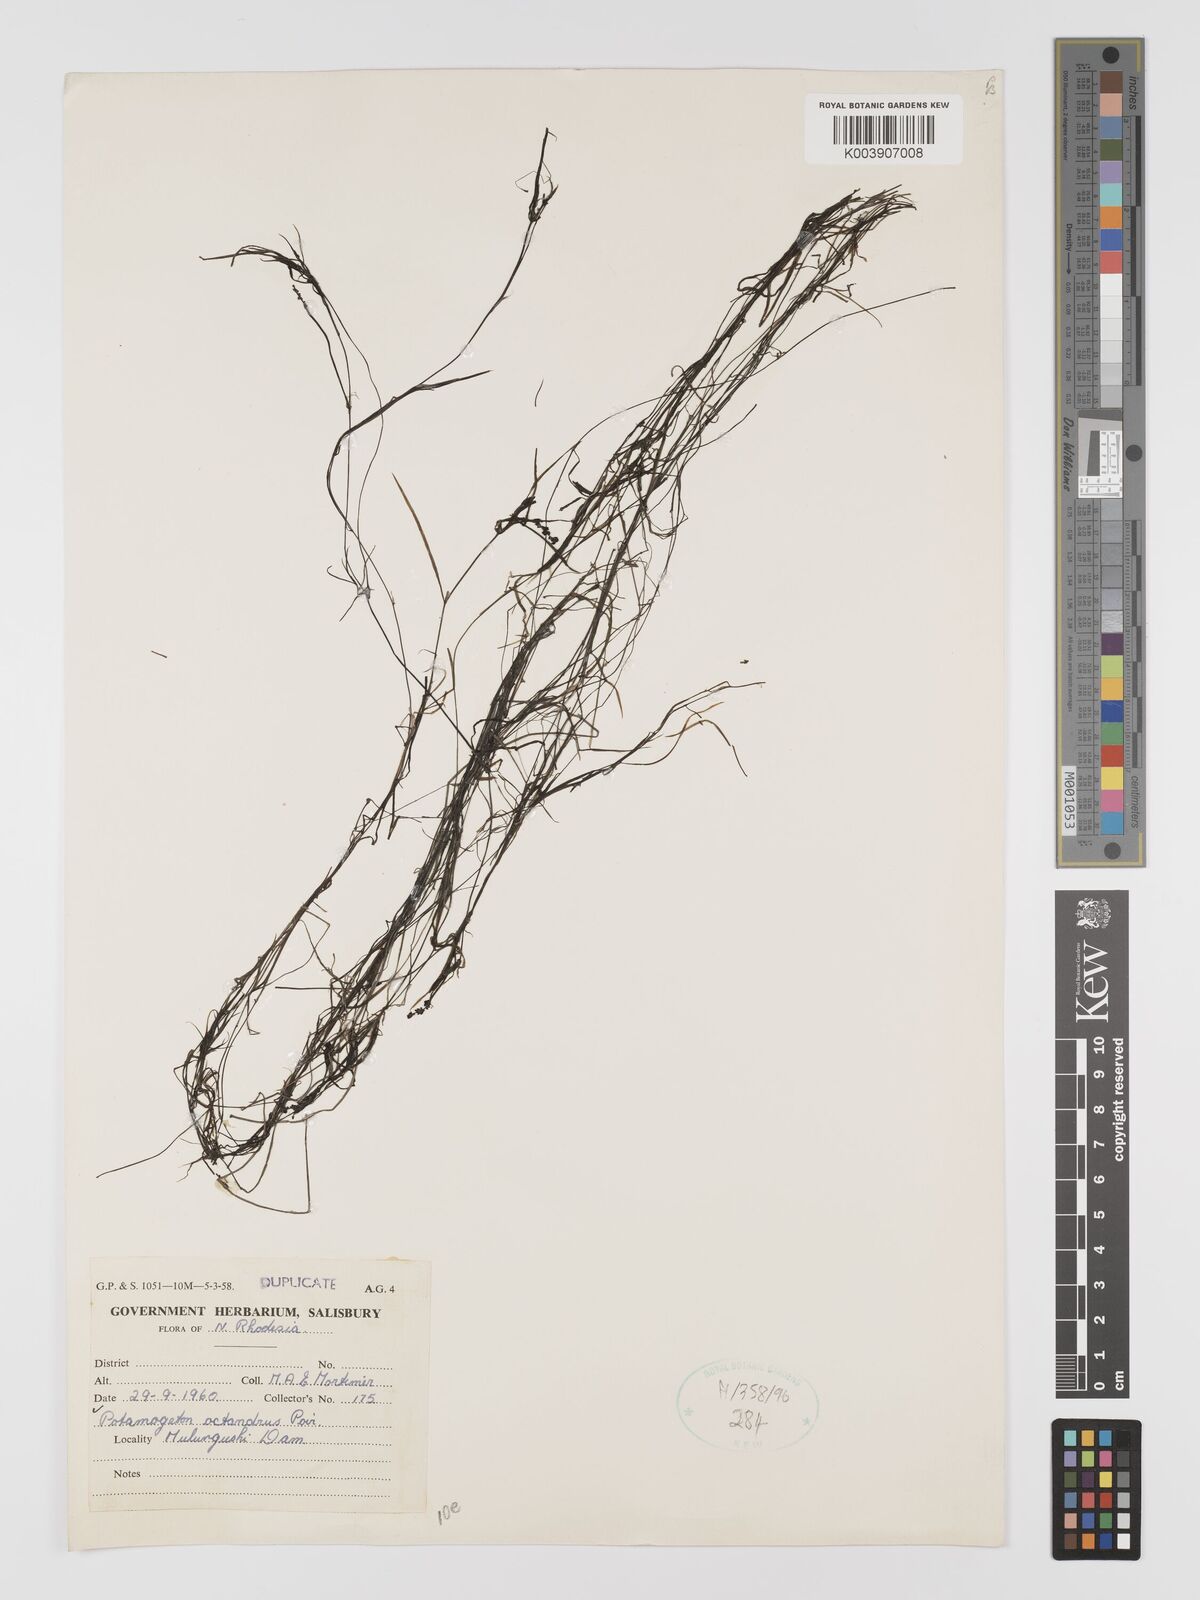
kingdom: Plantae
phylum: Tracheophyta
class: Liliopsida
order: Alismatales
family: Potamogetonaceae
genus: Potamogeton
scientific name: Potamogeton octandrus
